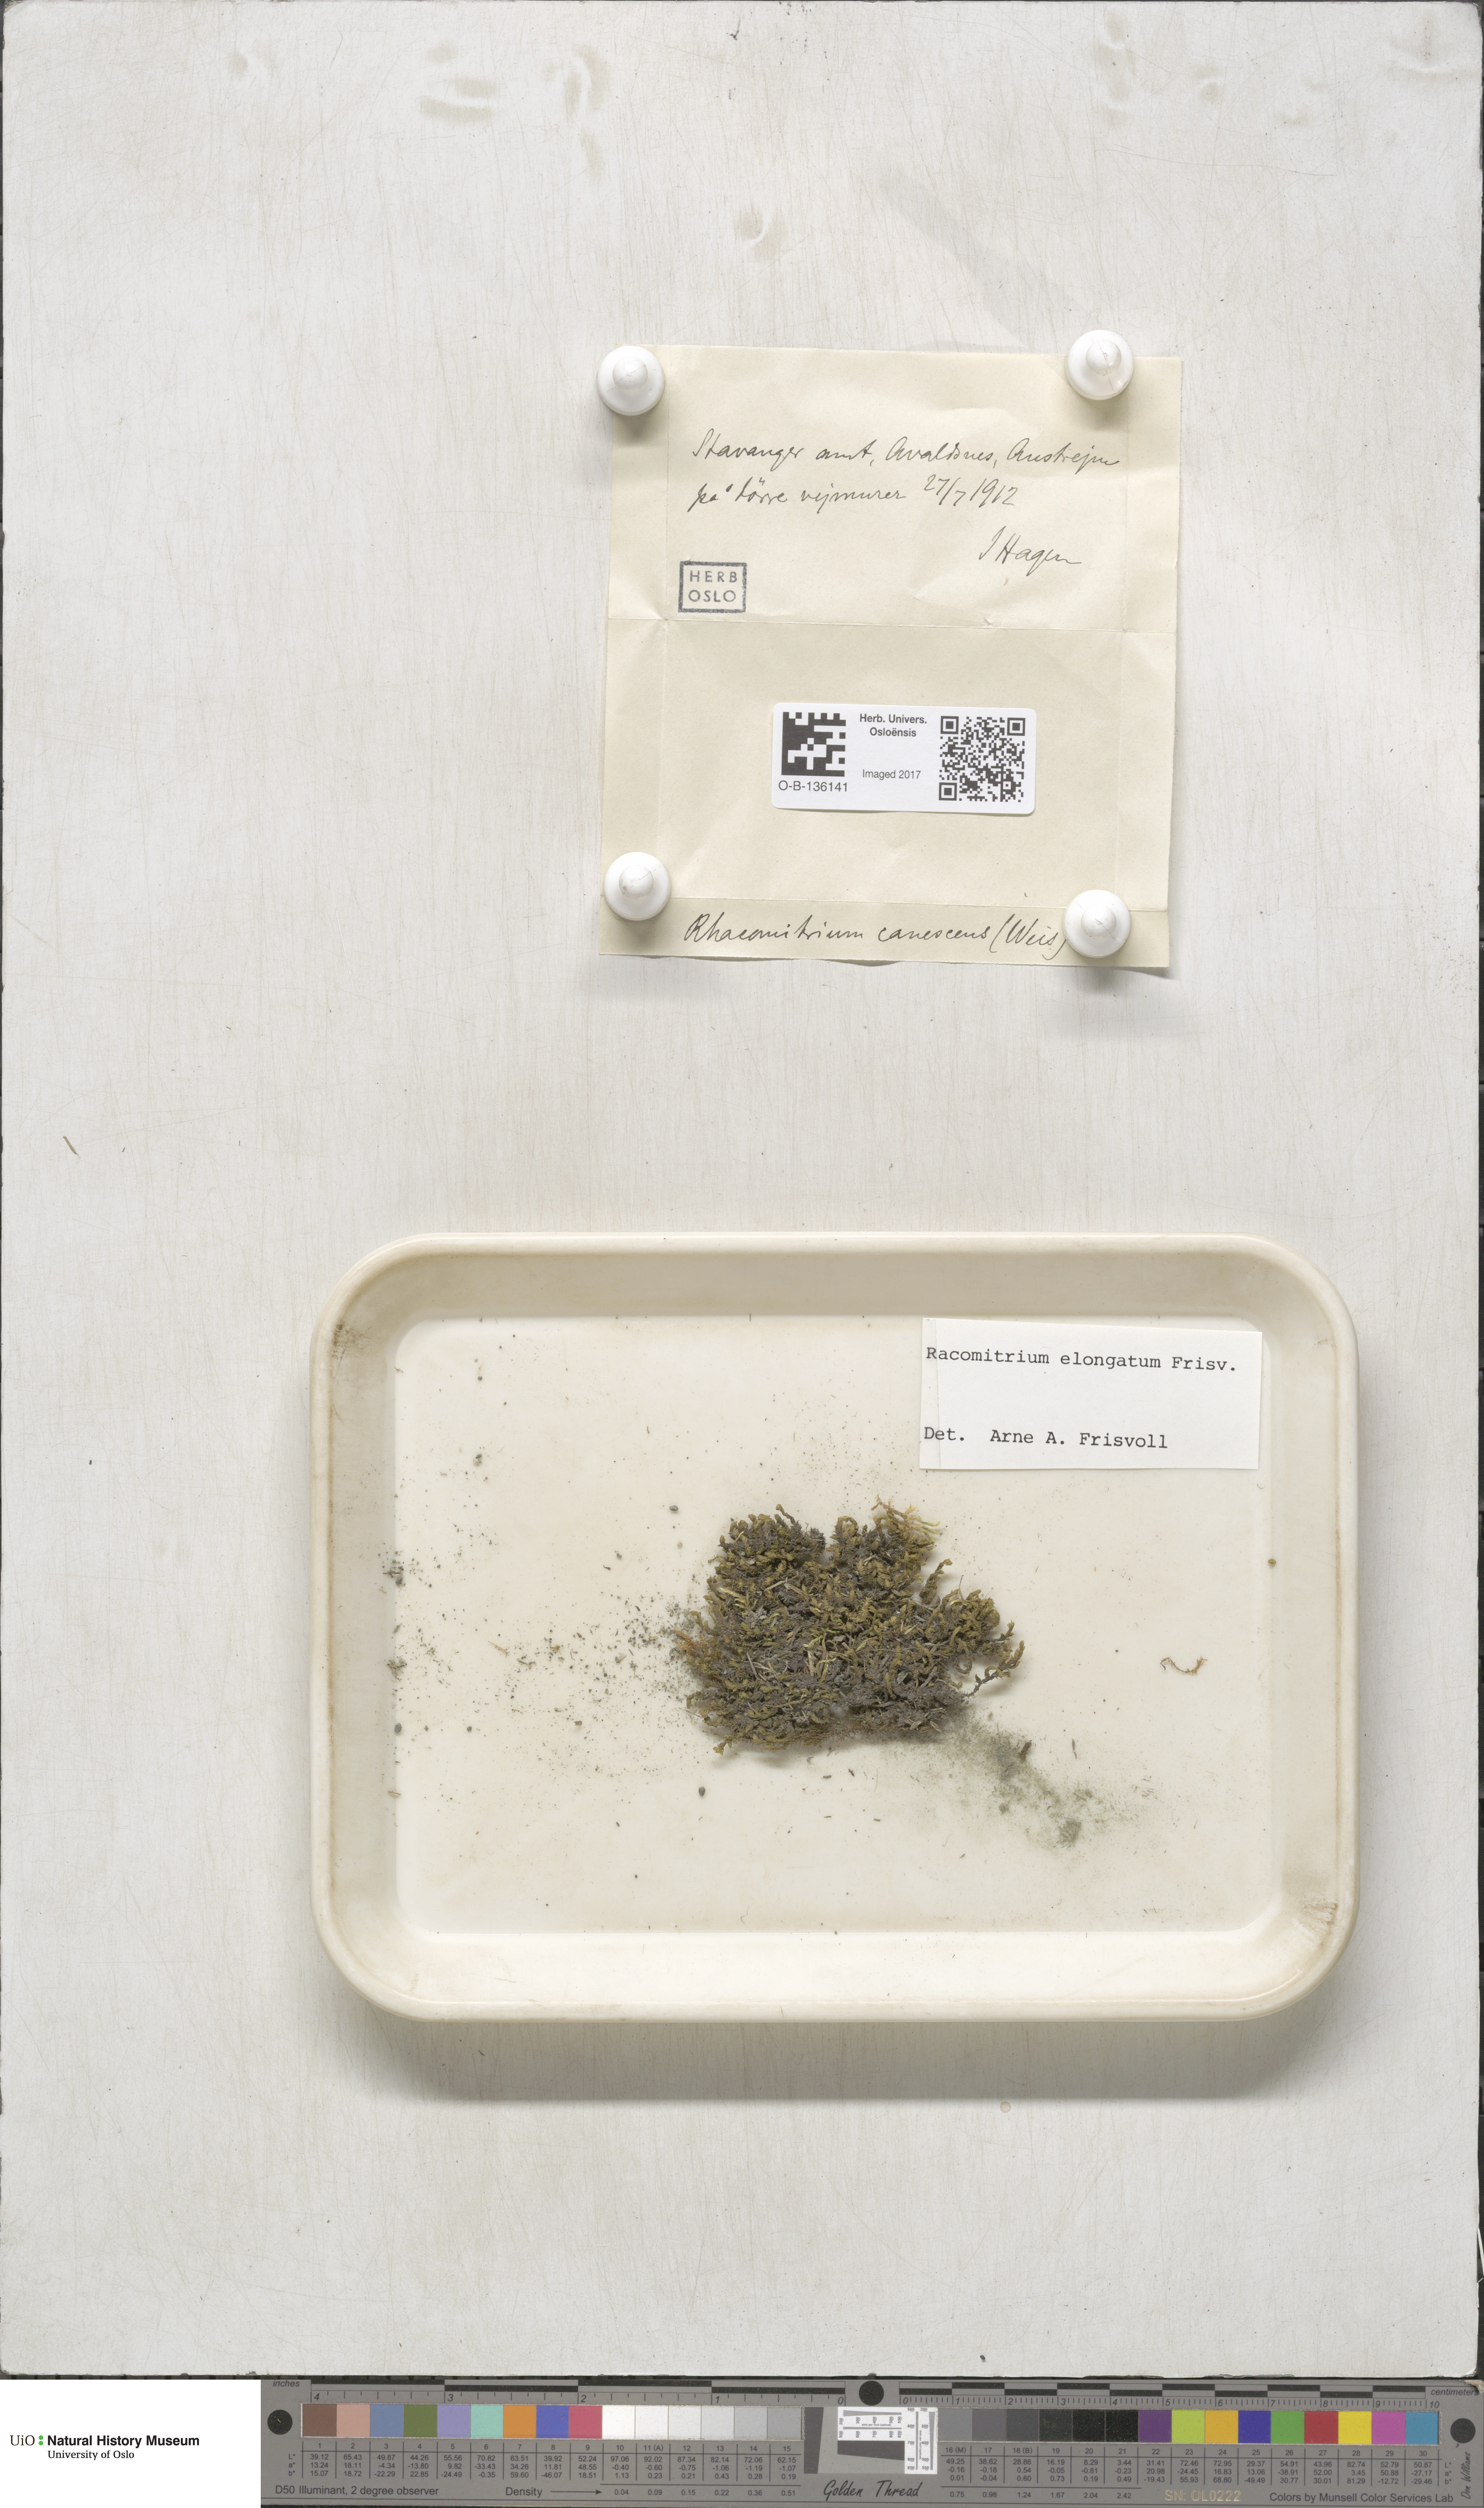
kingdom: Plantae
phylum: Bryophyta
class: Bryopsida
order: Grimmiales
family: Grimmiaceae
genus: Niphotrichum
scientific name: Niphotrichum elongatum
